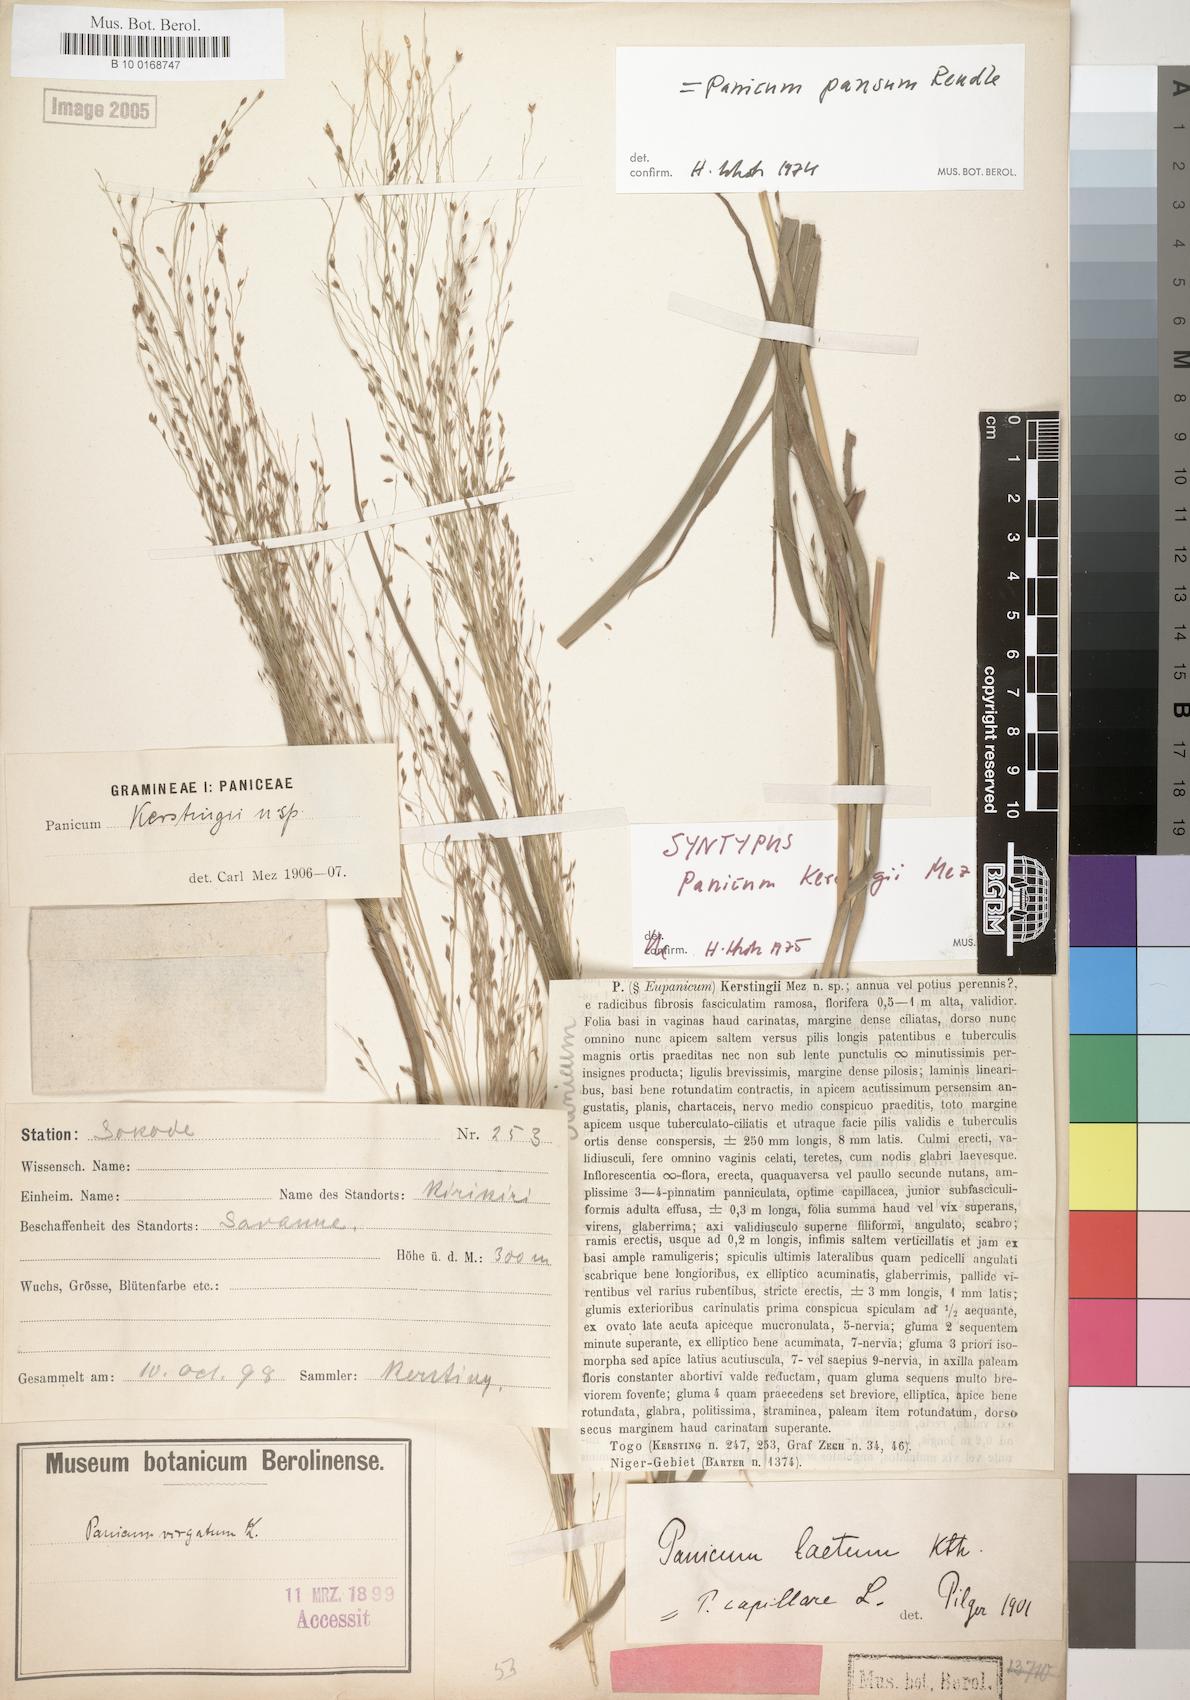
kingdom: Plantae
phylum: Tracheophyta
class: Liliopsida
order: Poales
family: Poaceae
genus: Panicum
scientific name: Panicum pansum
